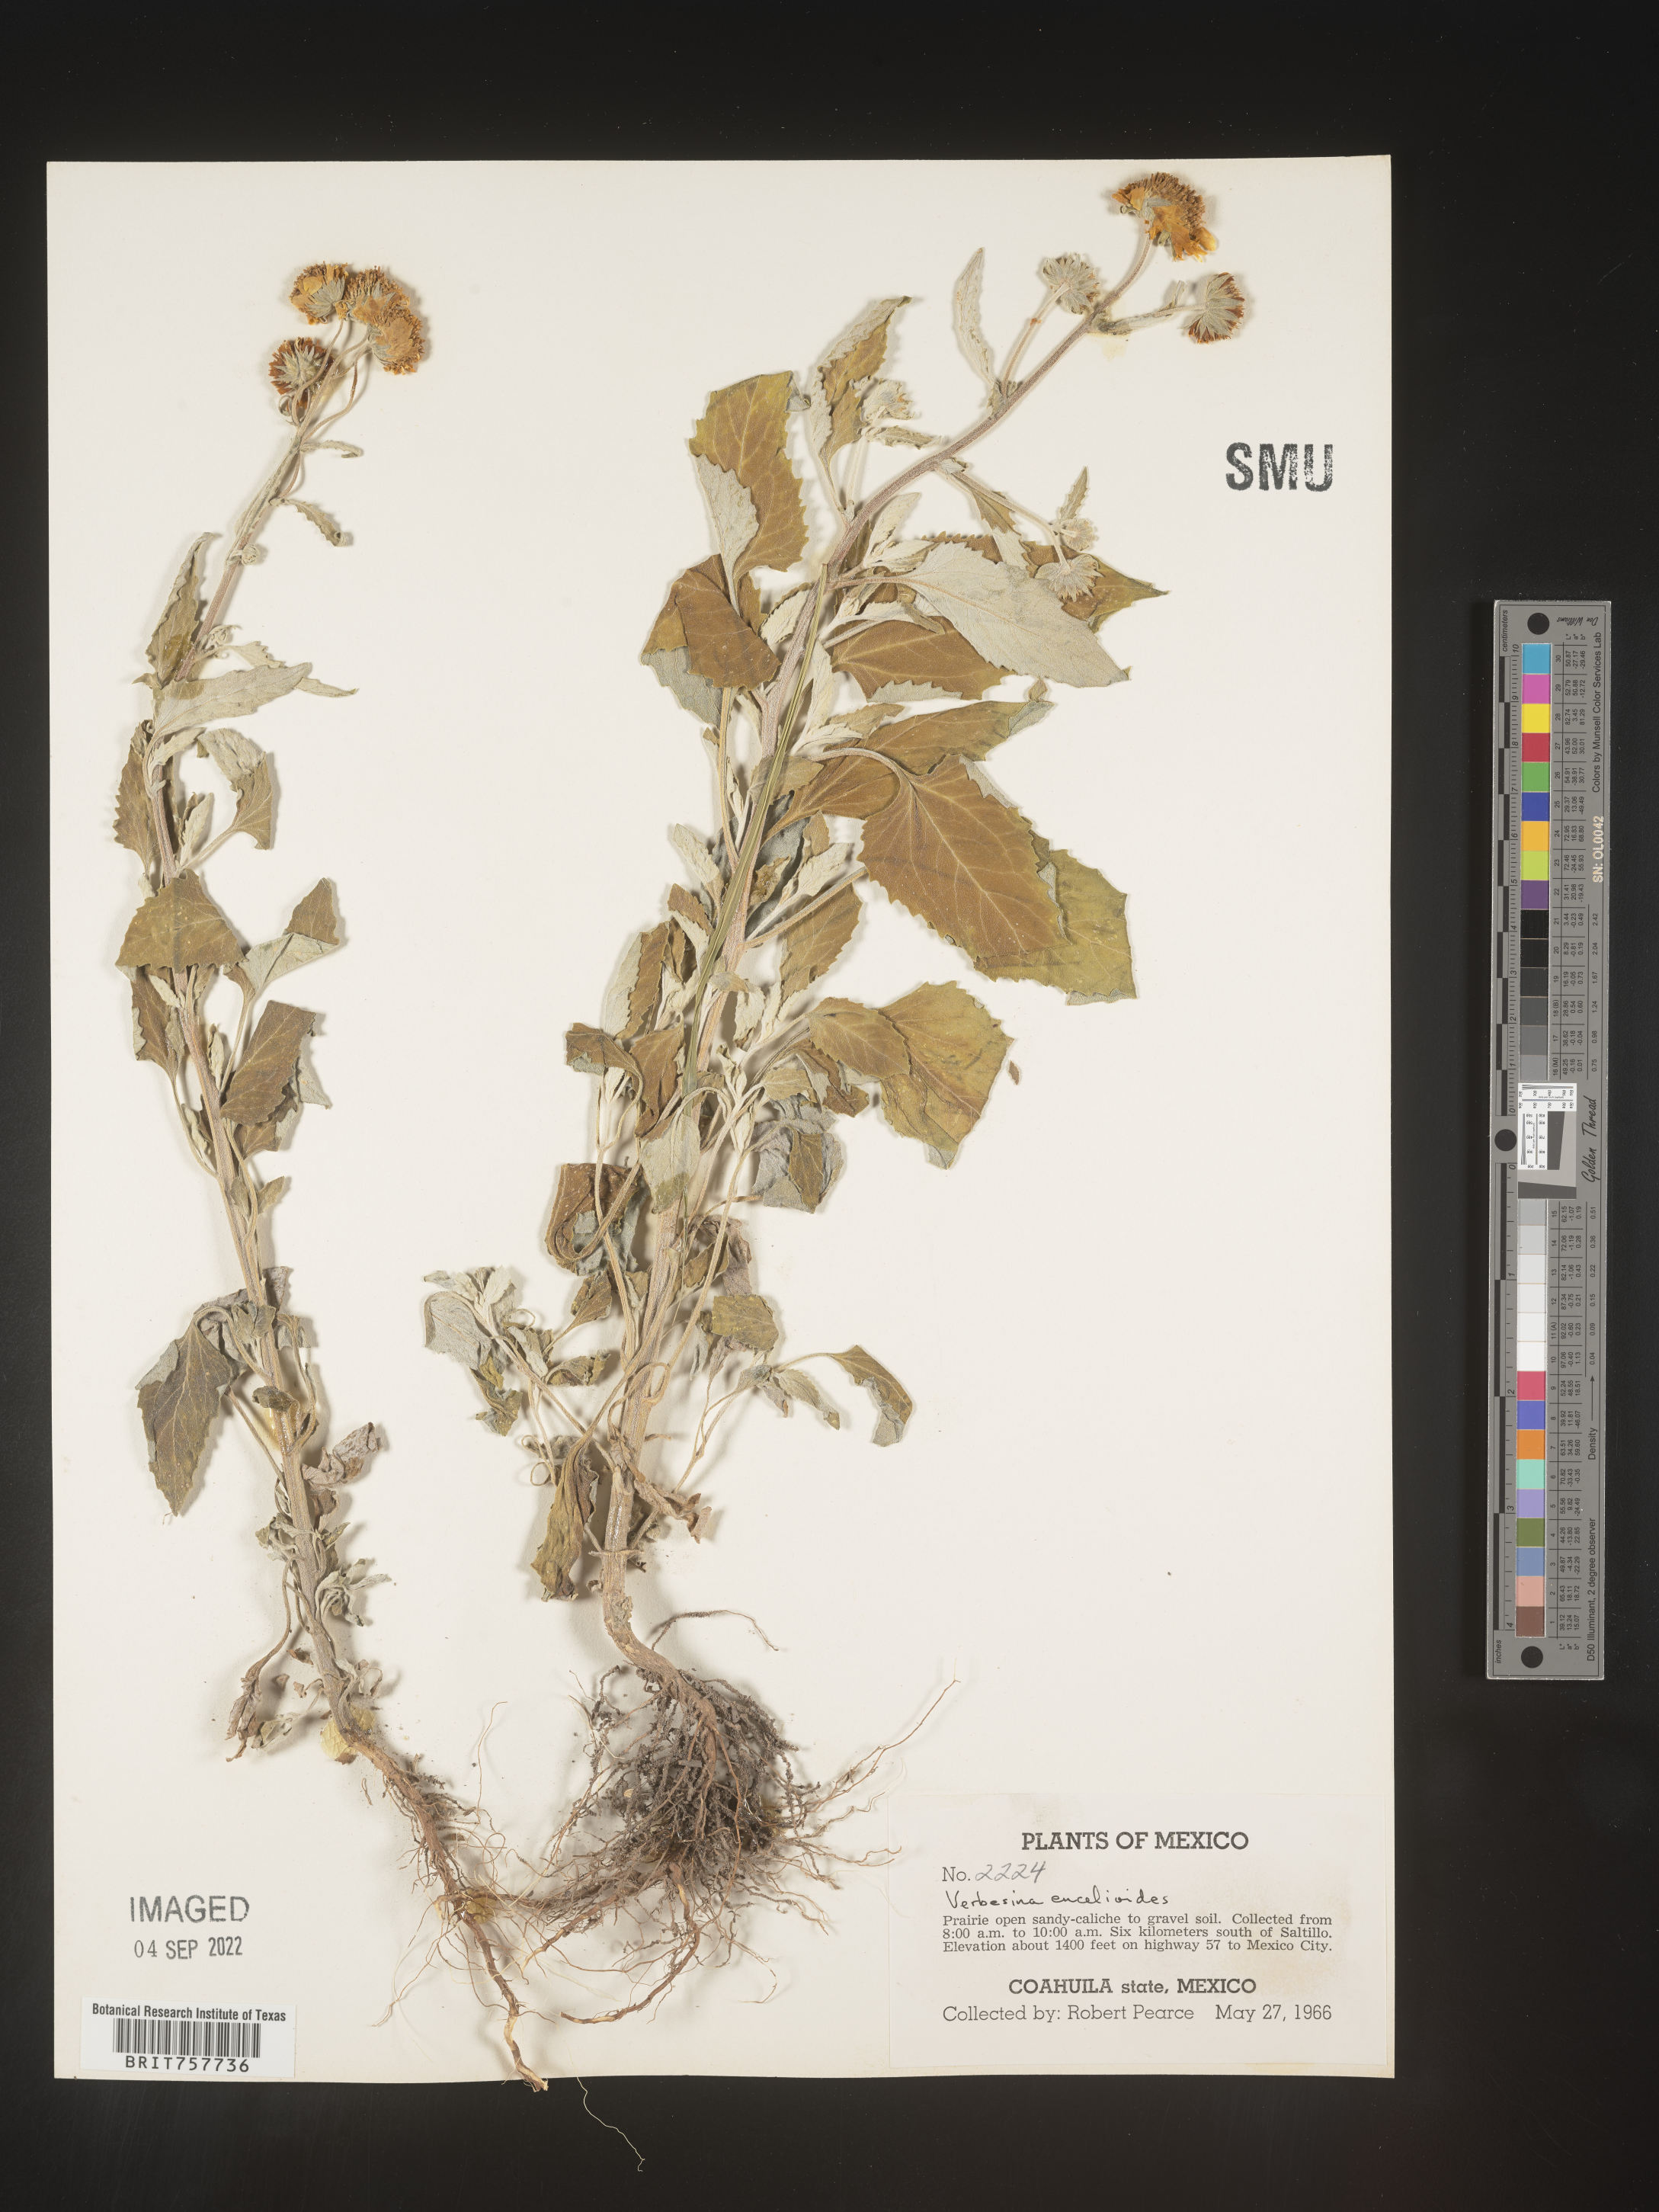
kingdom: Plantae
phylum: Tracheophyta
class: Magnoliopsida
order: Asterales
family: Asteraceae
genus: Verbesina
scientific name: Verbesina
